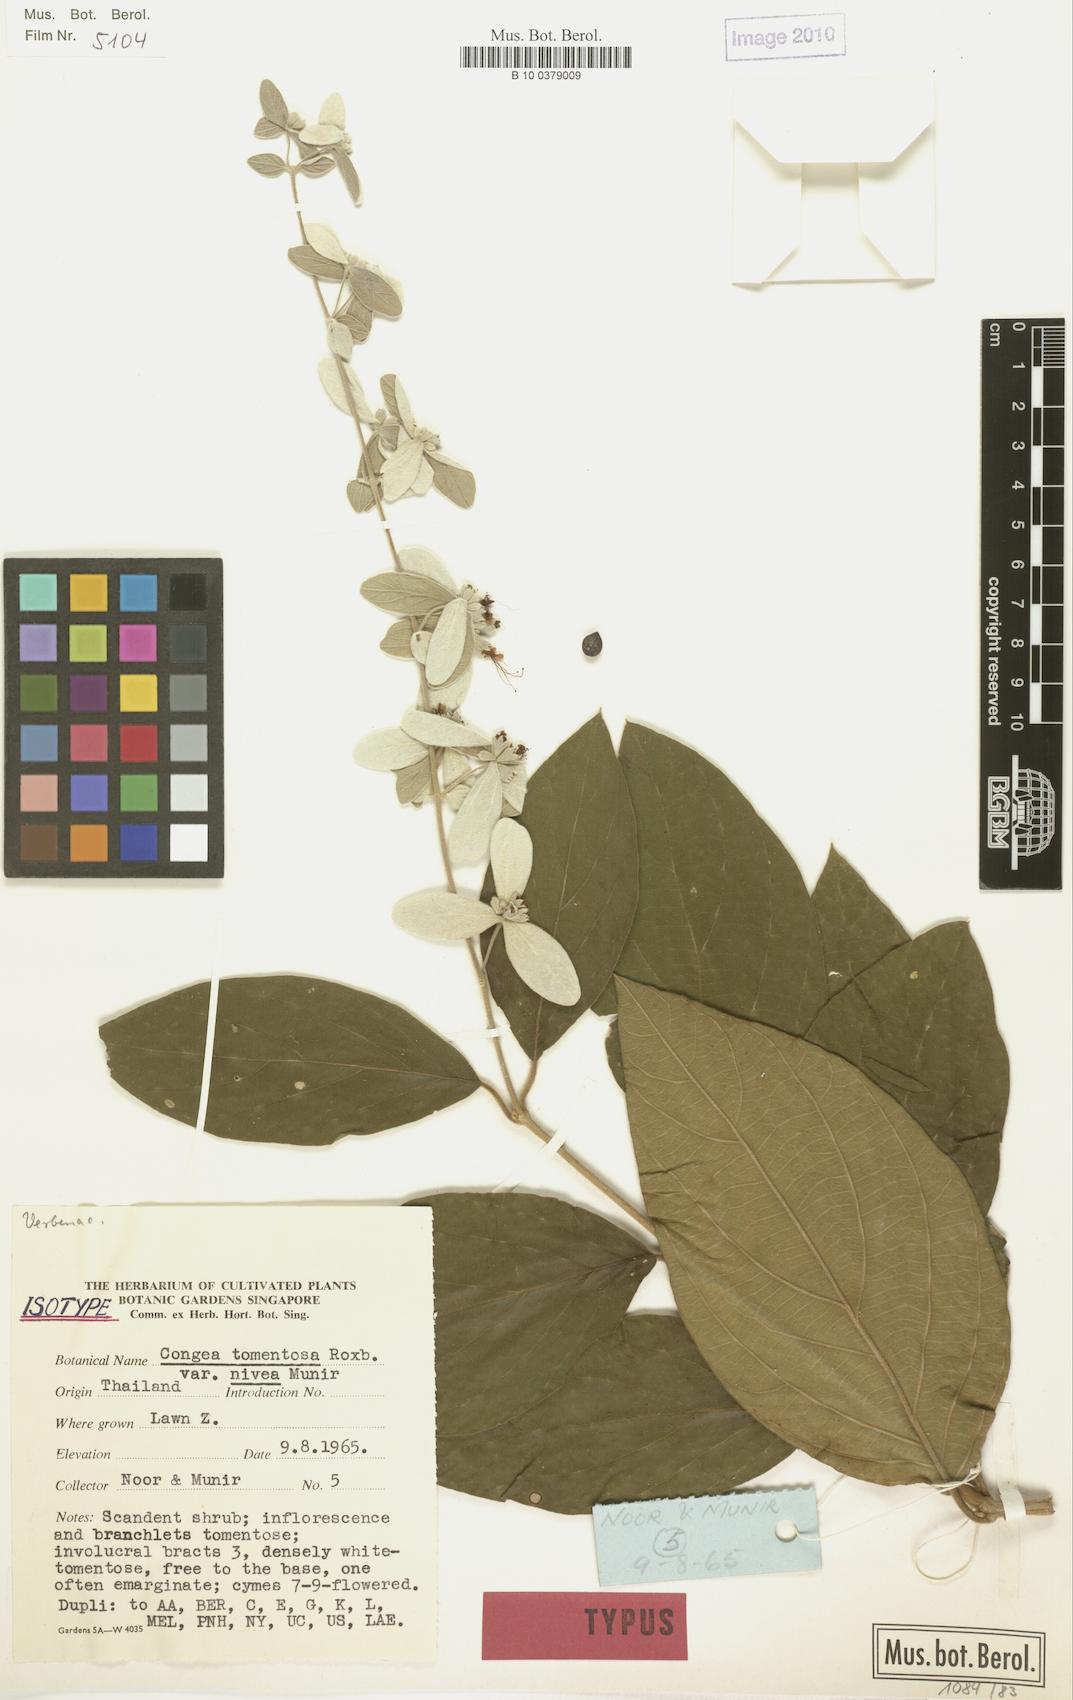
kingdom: Plantae
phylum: Tracheophyta
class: Magnoliopsida
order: Lamiales
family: Lamiaceae
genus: Congea
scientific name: Congea tomentosa
